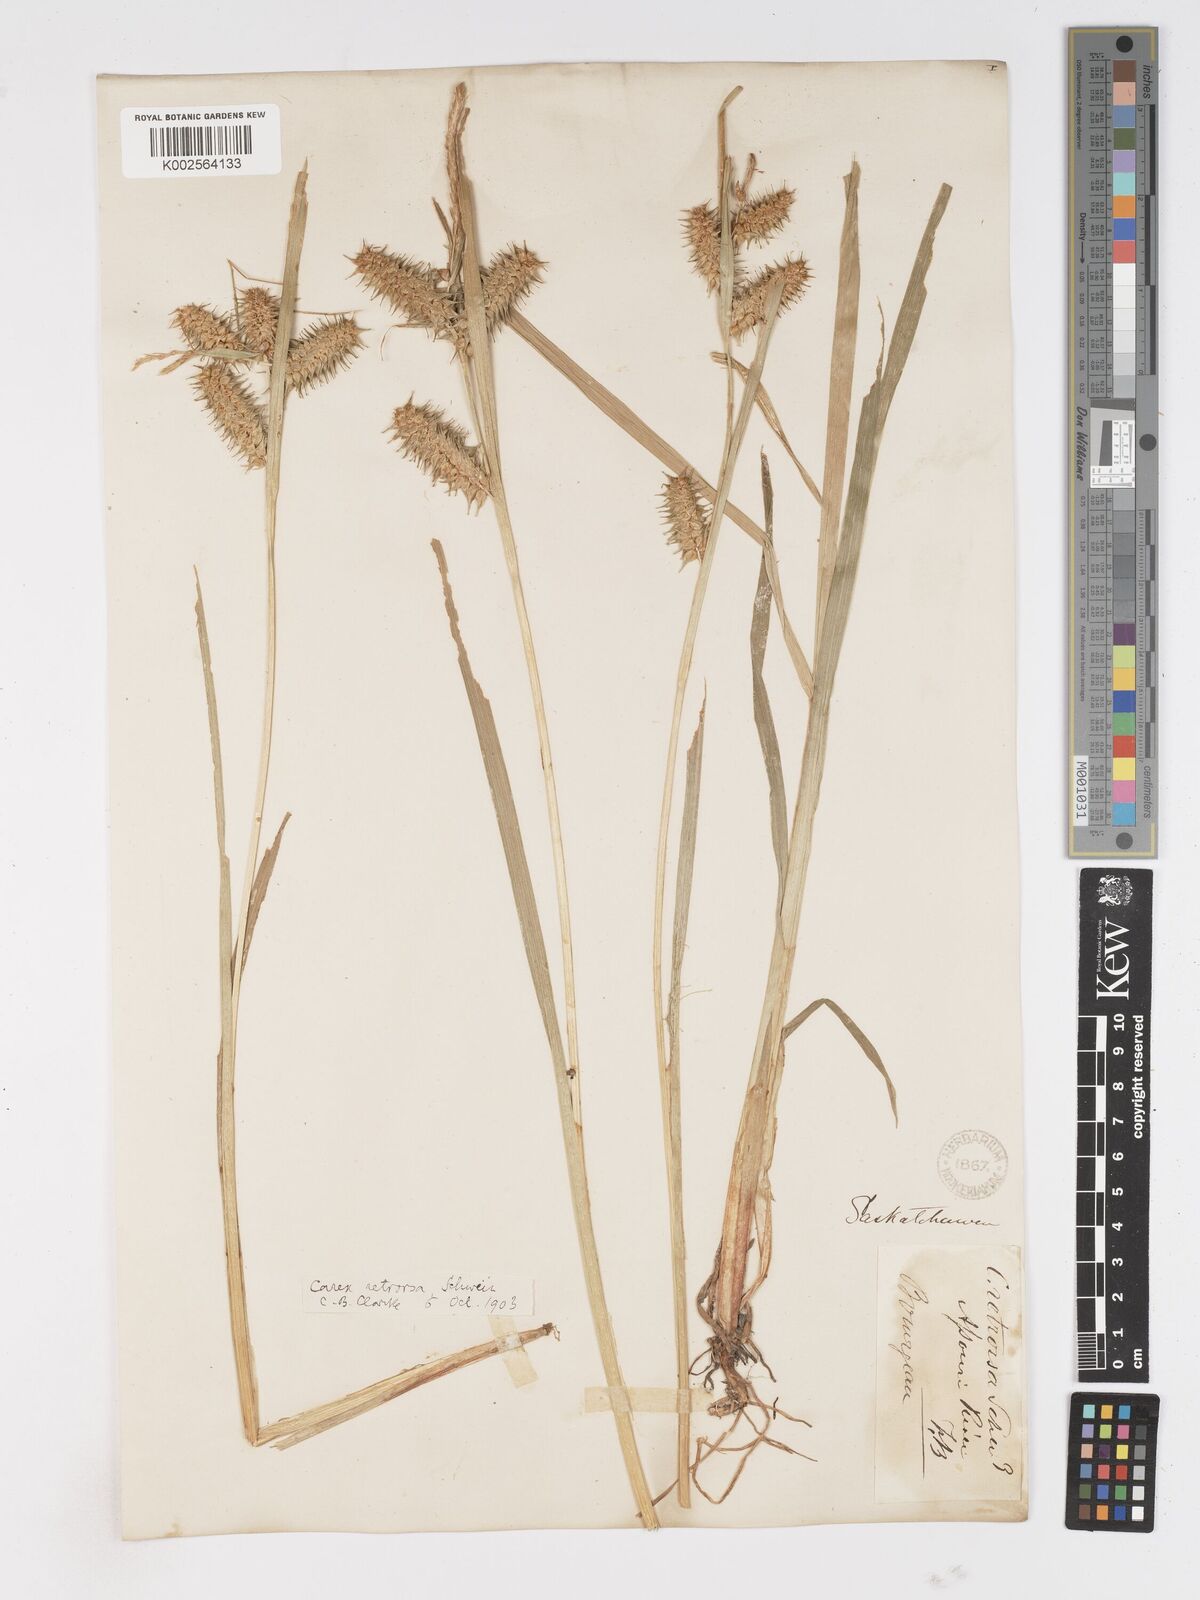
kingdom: Plantae
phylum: Tracheophyta
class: Liliopsida
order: Poales
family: Cyperaceae
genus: Carex
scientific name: Carex retrorsa
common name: Knot-sheath sedge
